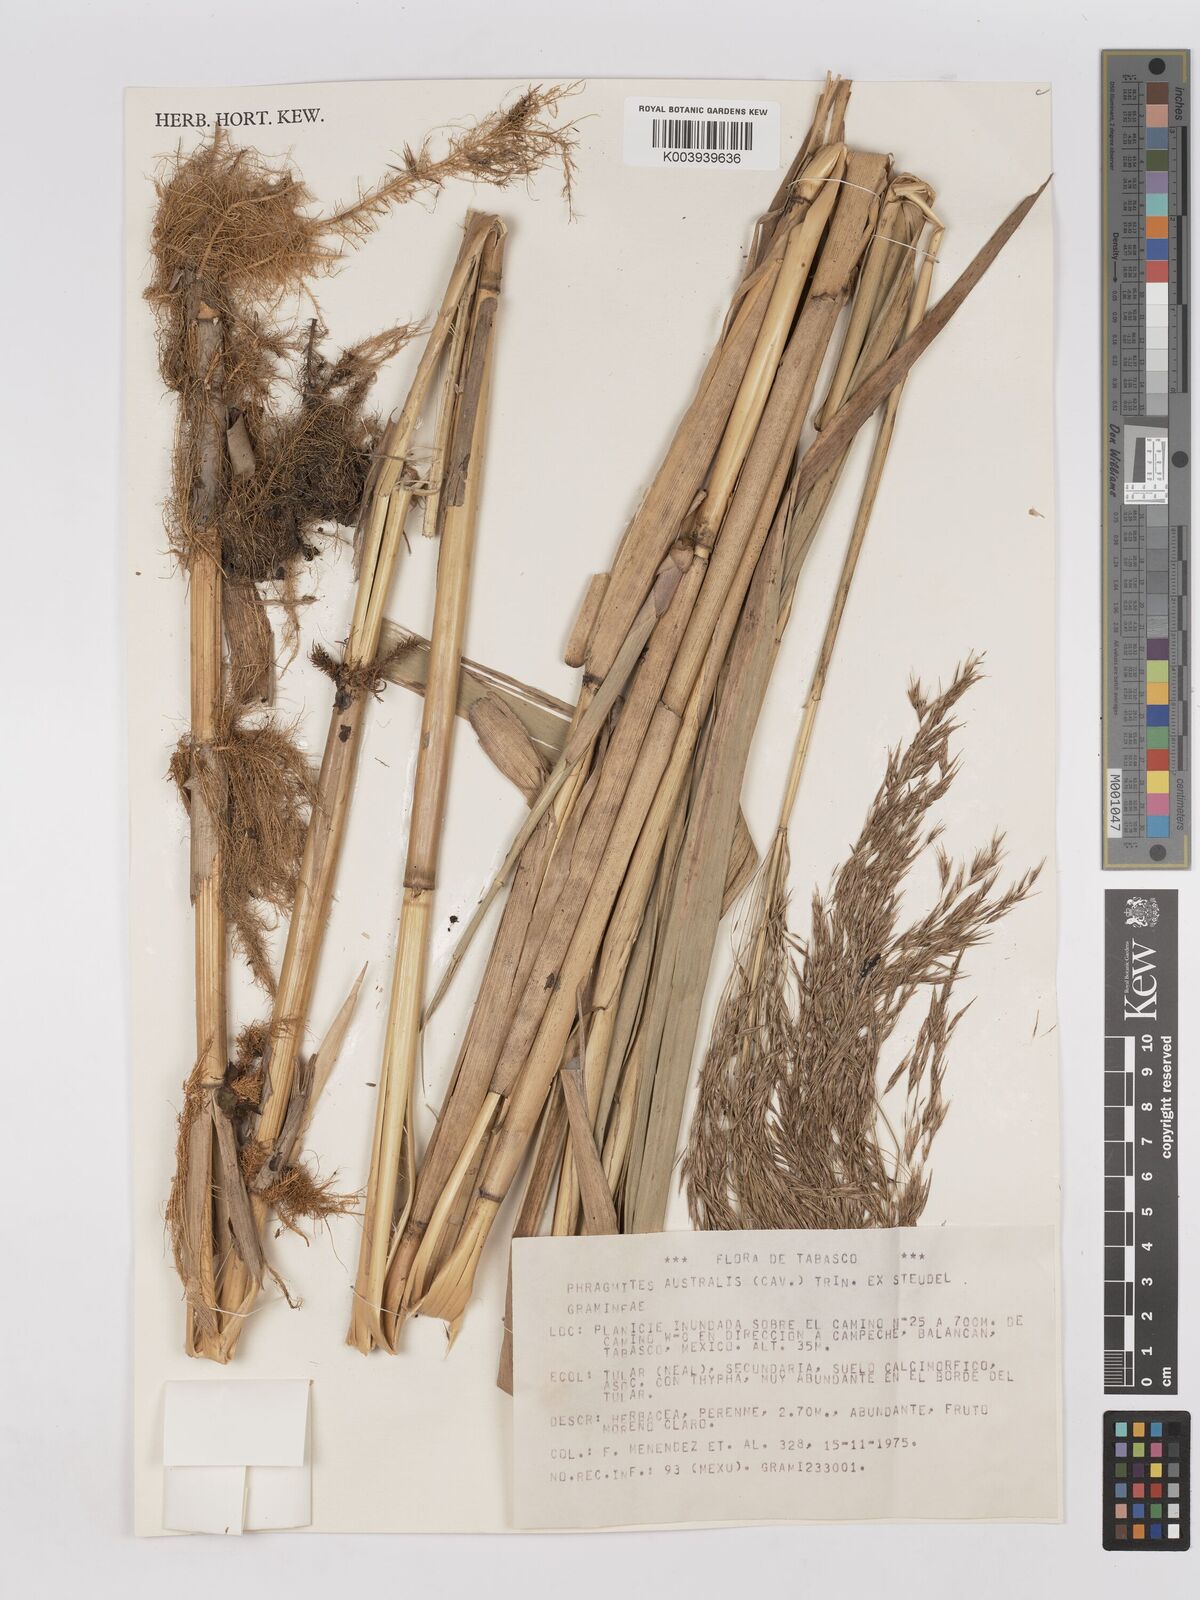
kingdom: Plantae
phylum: Tracheophyta
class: Liliopsida
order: Poales
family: Poaceae
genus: Phragmites
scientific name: Phragmites australis
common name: Common reed
